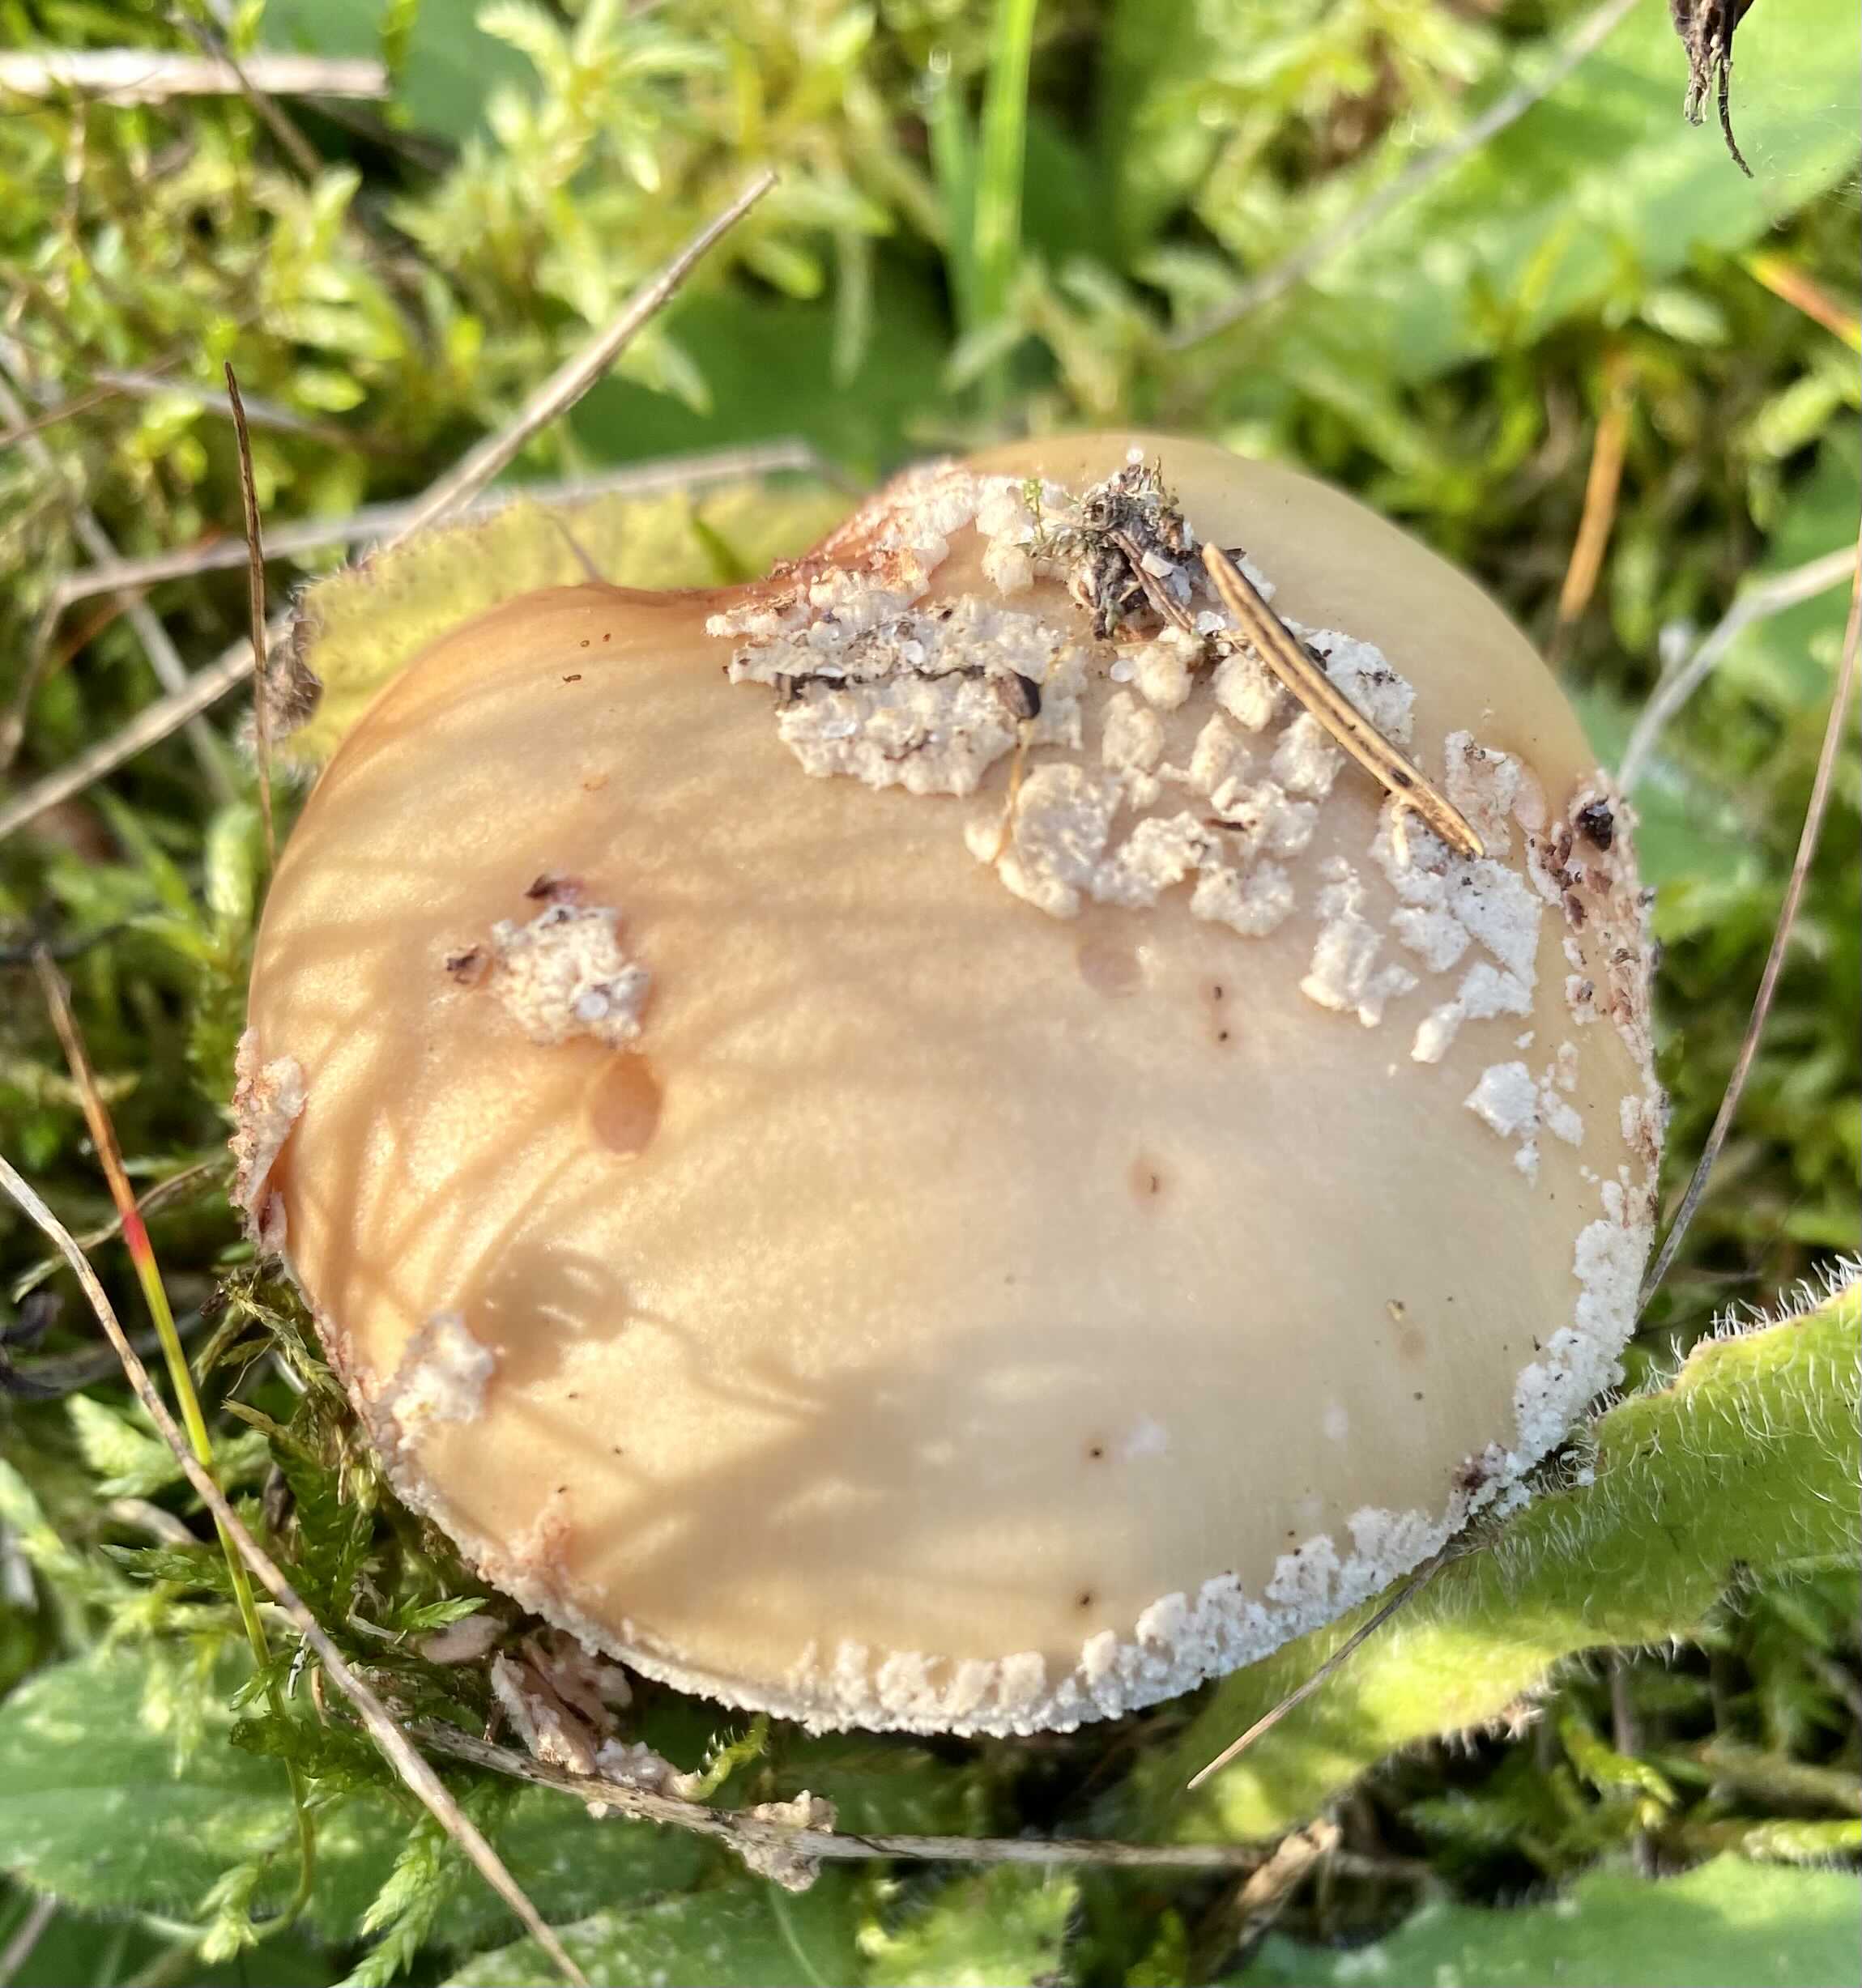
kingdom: Fungi
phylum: Basidiomycota
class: Agaricomycetes
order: Agaricales
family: Amanitaceae
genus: Amanita
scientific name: Amanita rubescens
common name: rødmende fluesvamp
